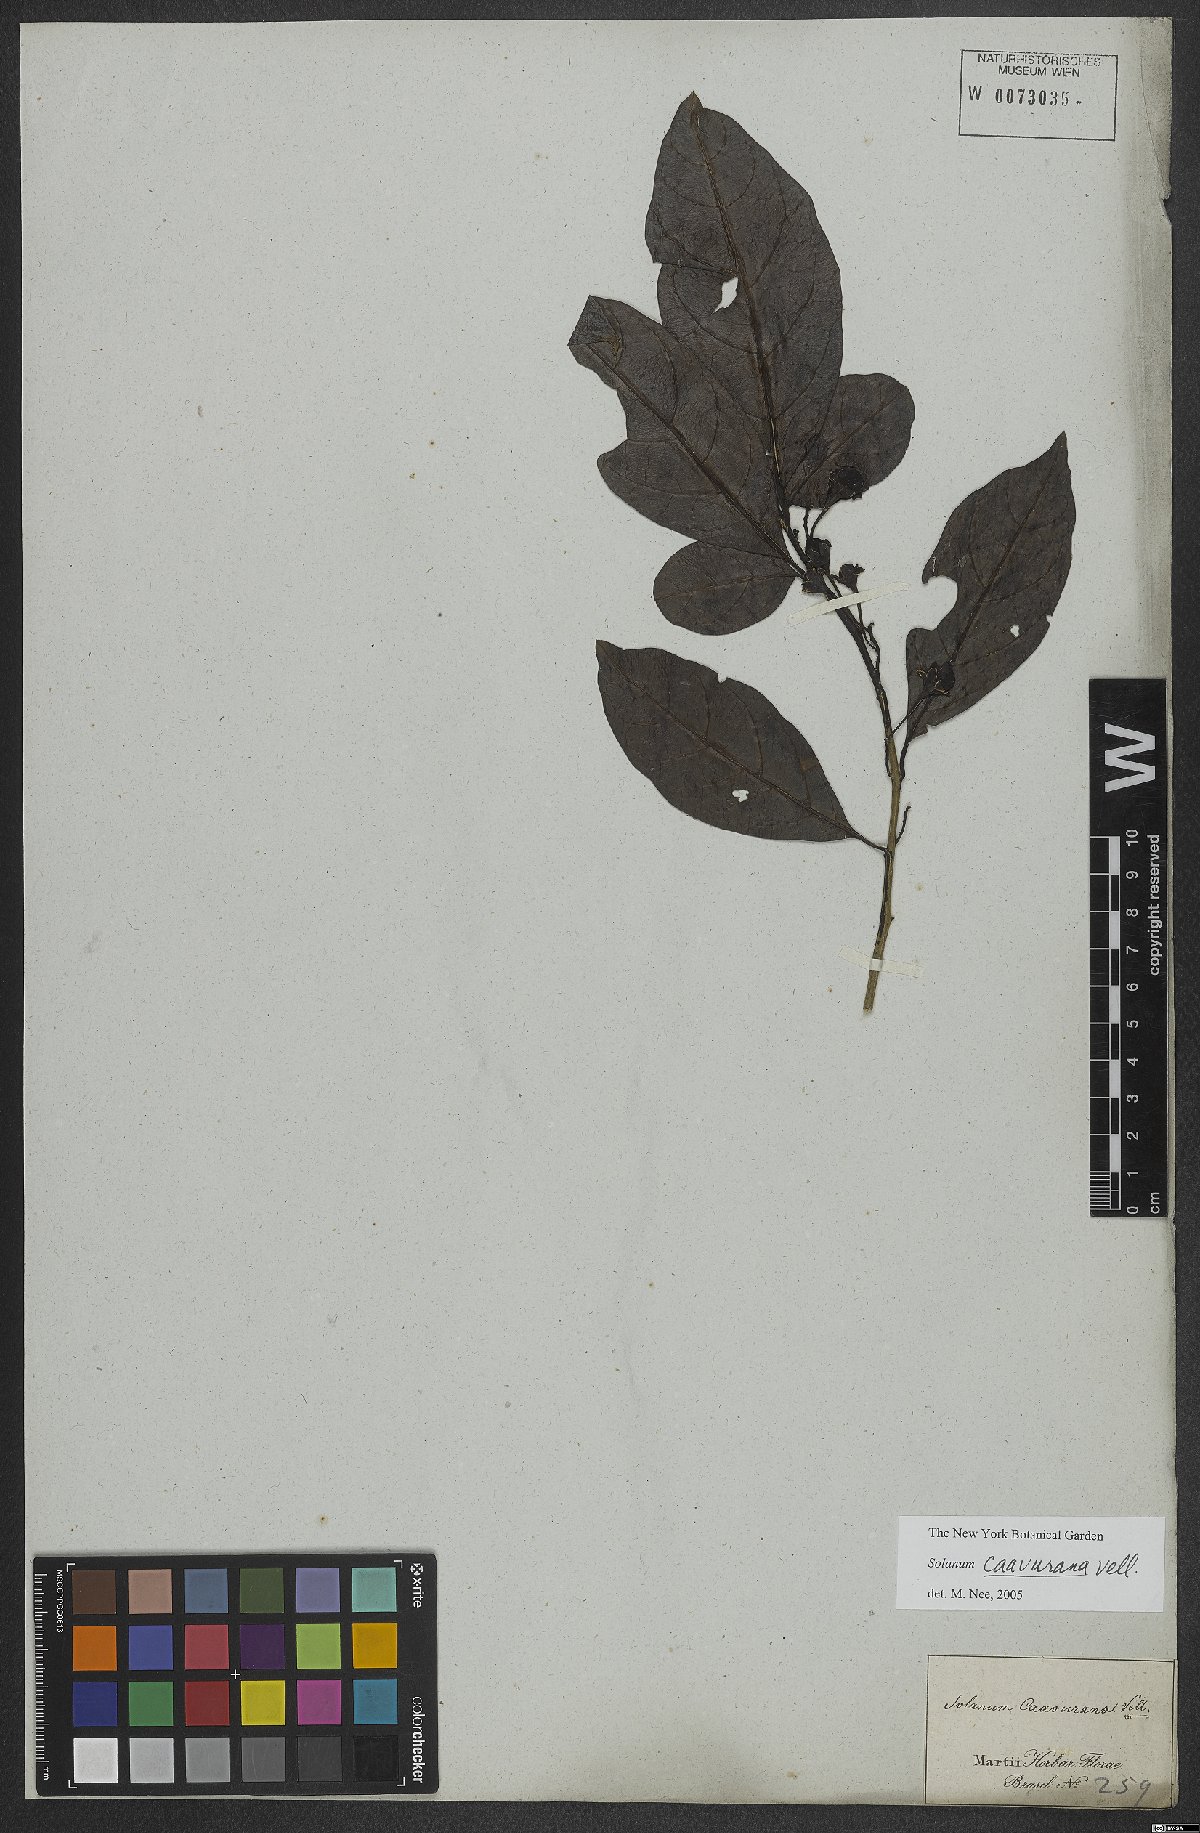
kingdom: Plantae
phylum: Tracheophyta
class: Magnoliopsida
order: Solanales
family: Solanaceae
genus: Solanum
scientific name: Solanum caavurana
